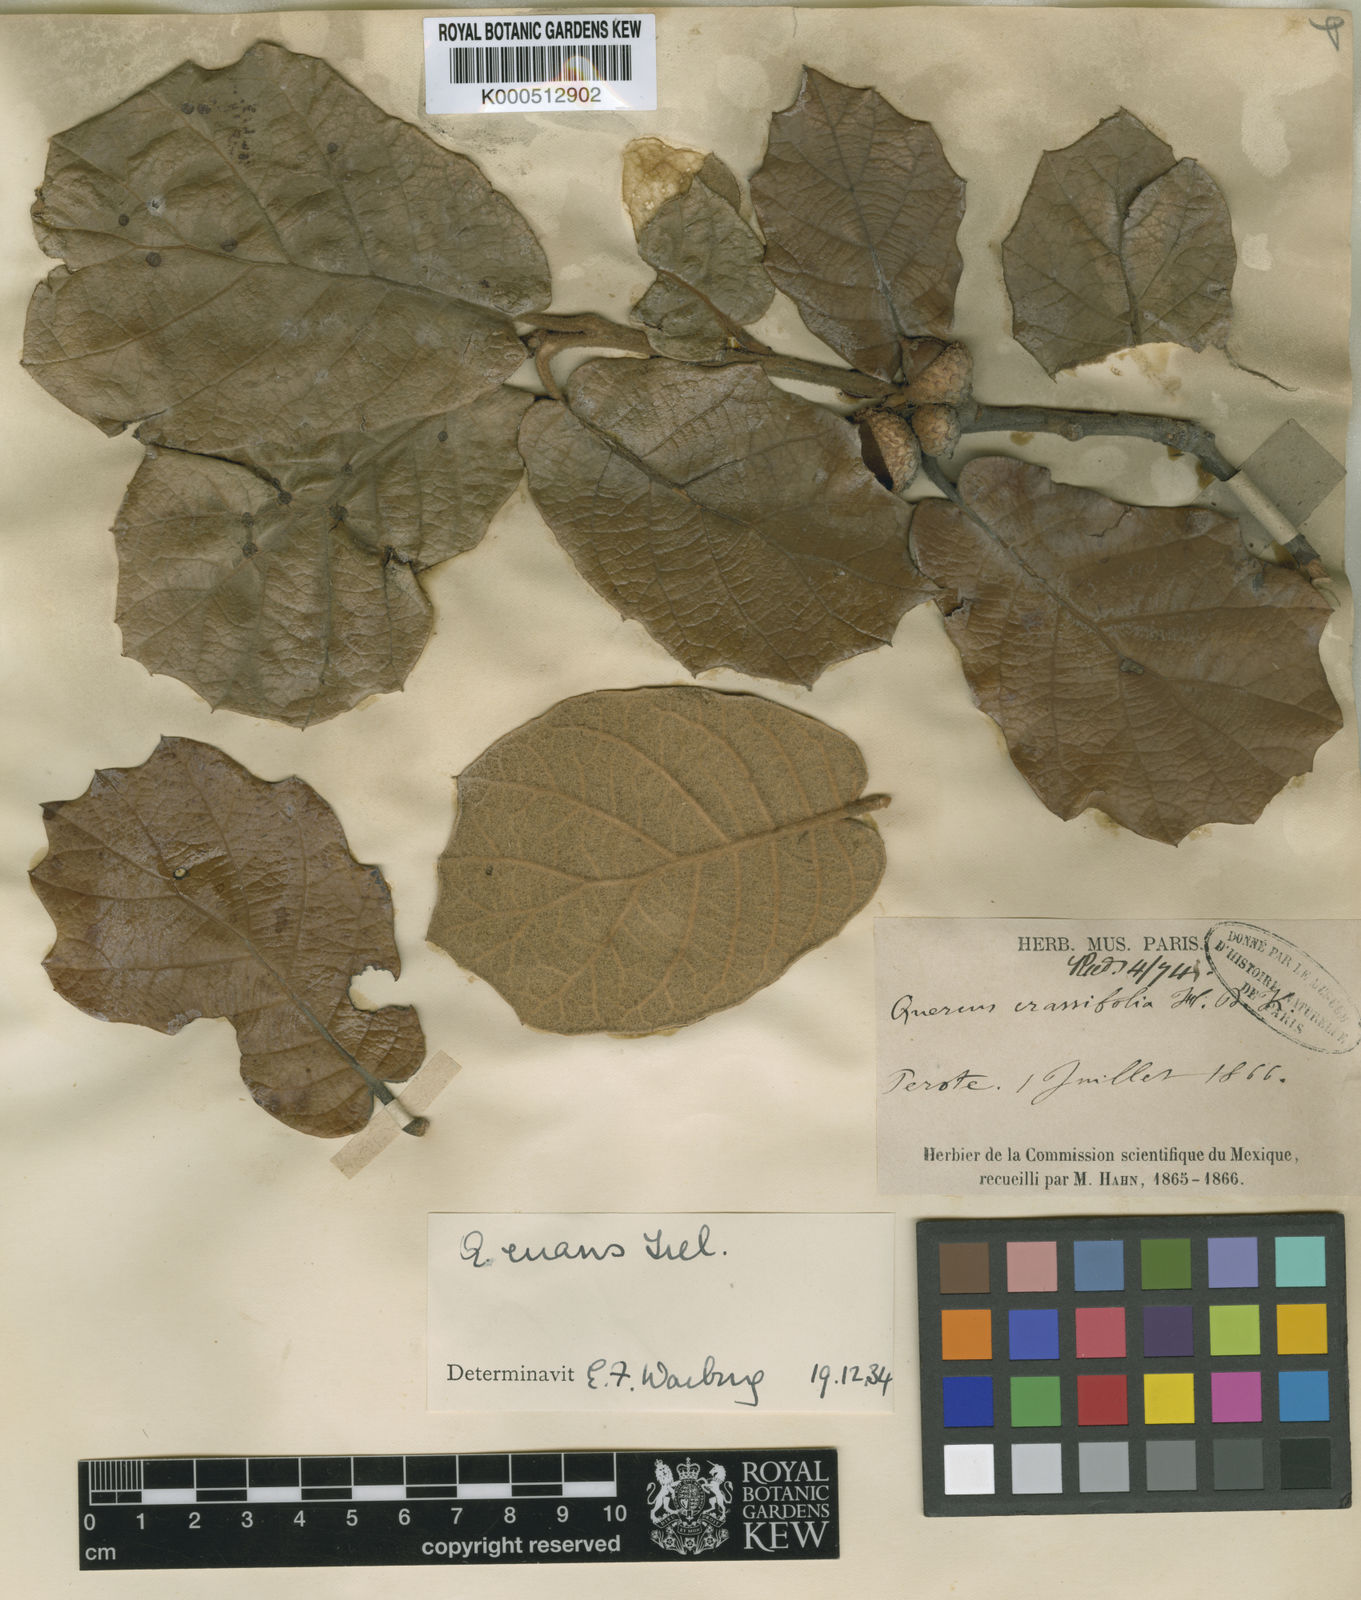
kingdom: Plantae
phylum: Tracheophyta
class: Magnoliopsida
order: Fagales
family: Fagaceae
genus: Quercus
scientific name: Quercus crassifolia
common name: Leather leaf mexican oak
